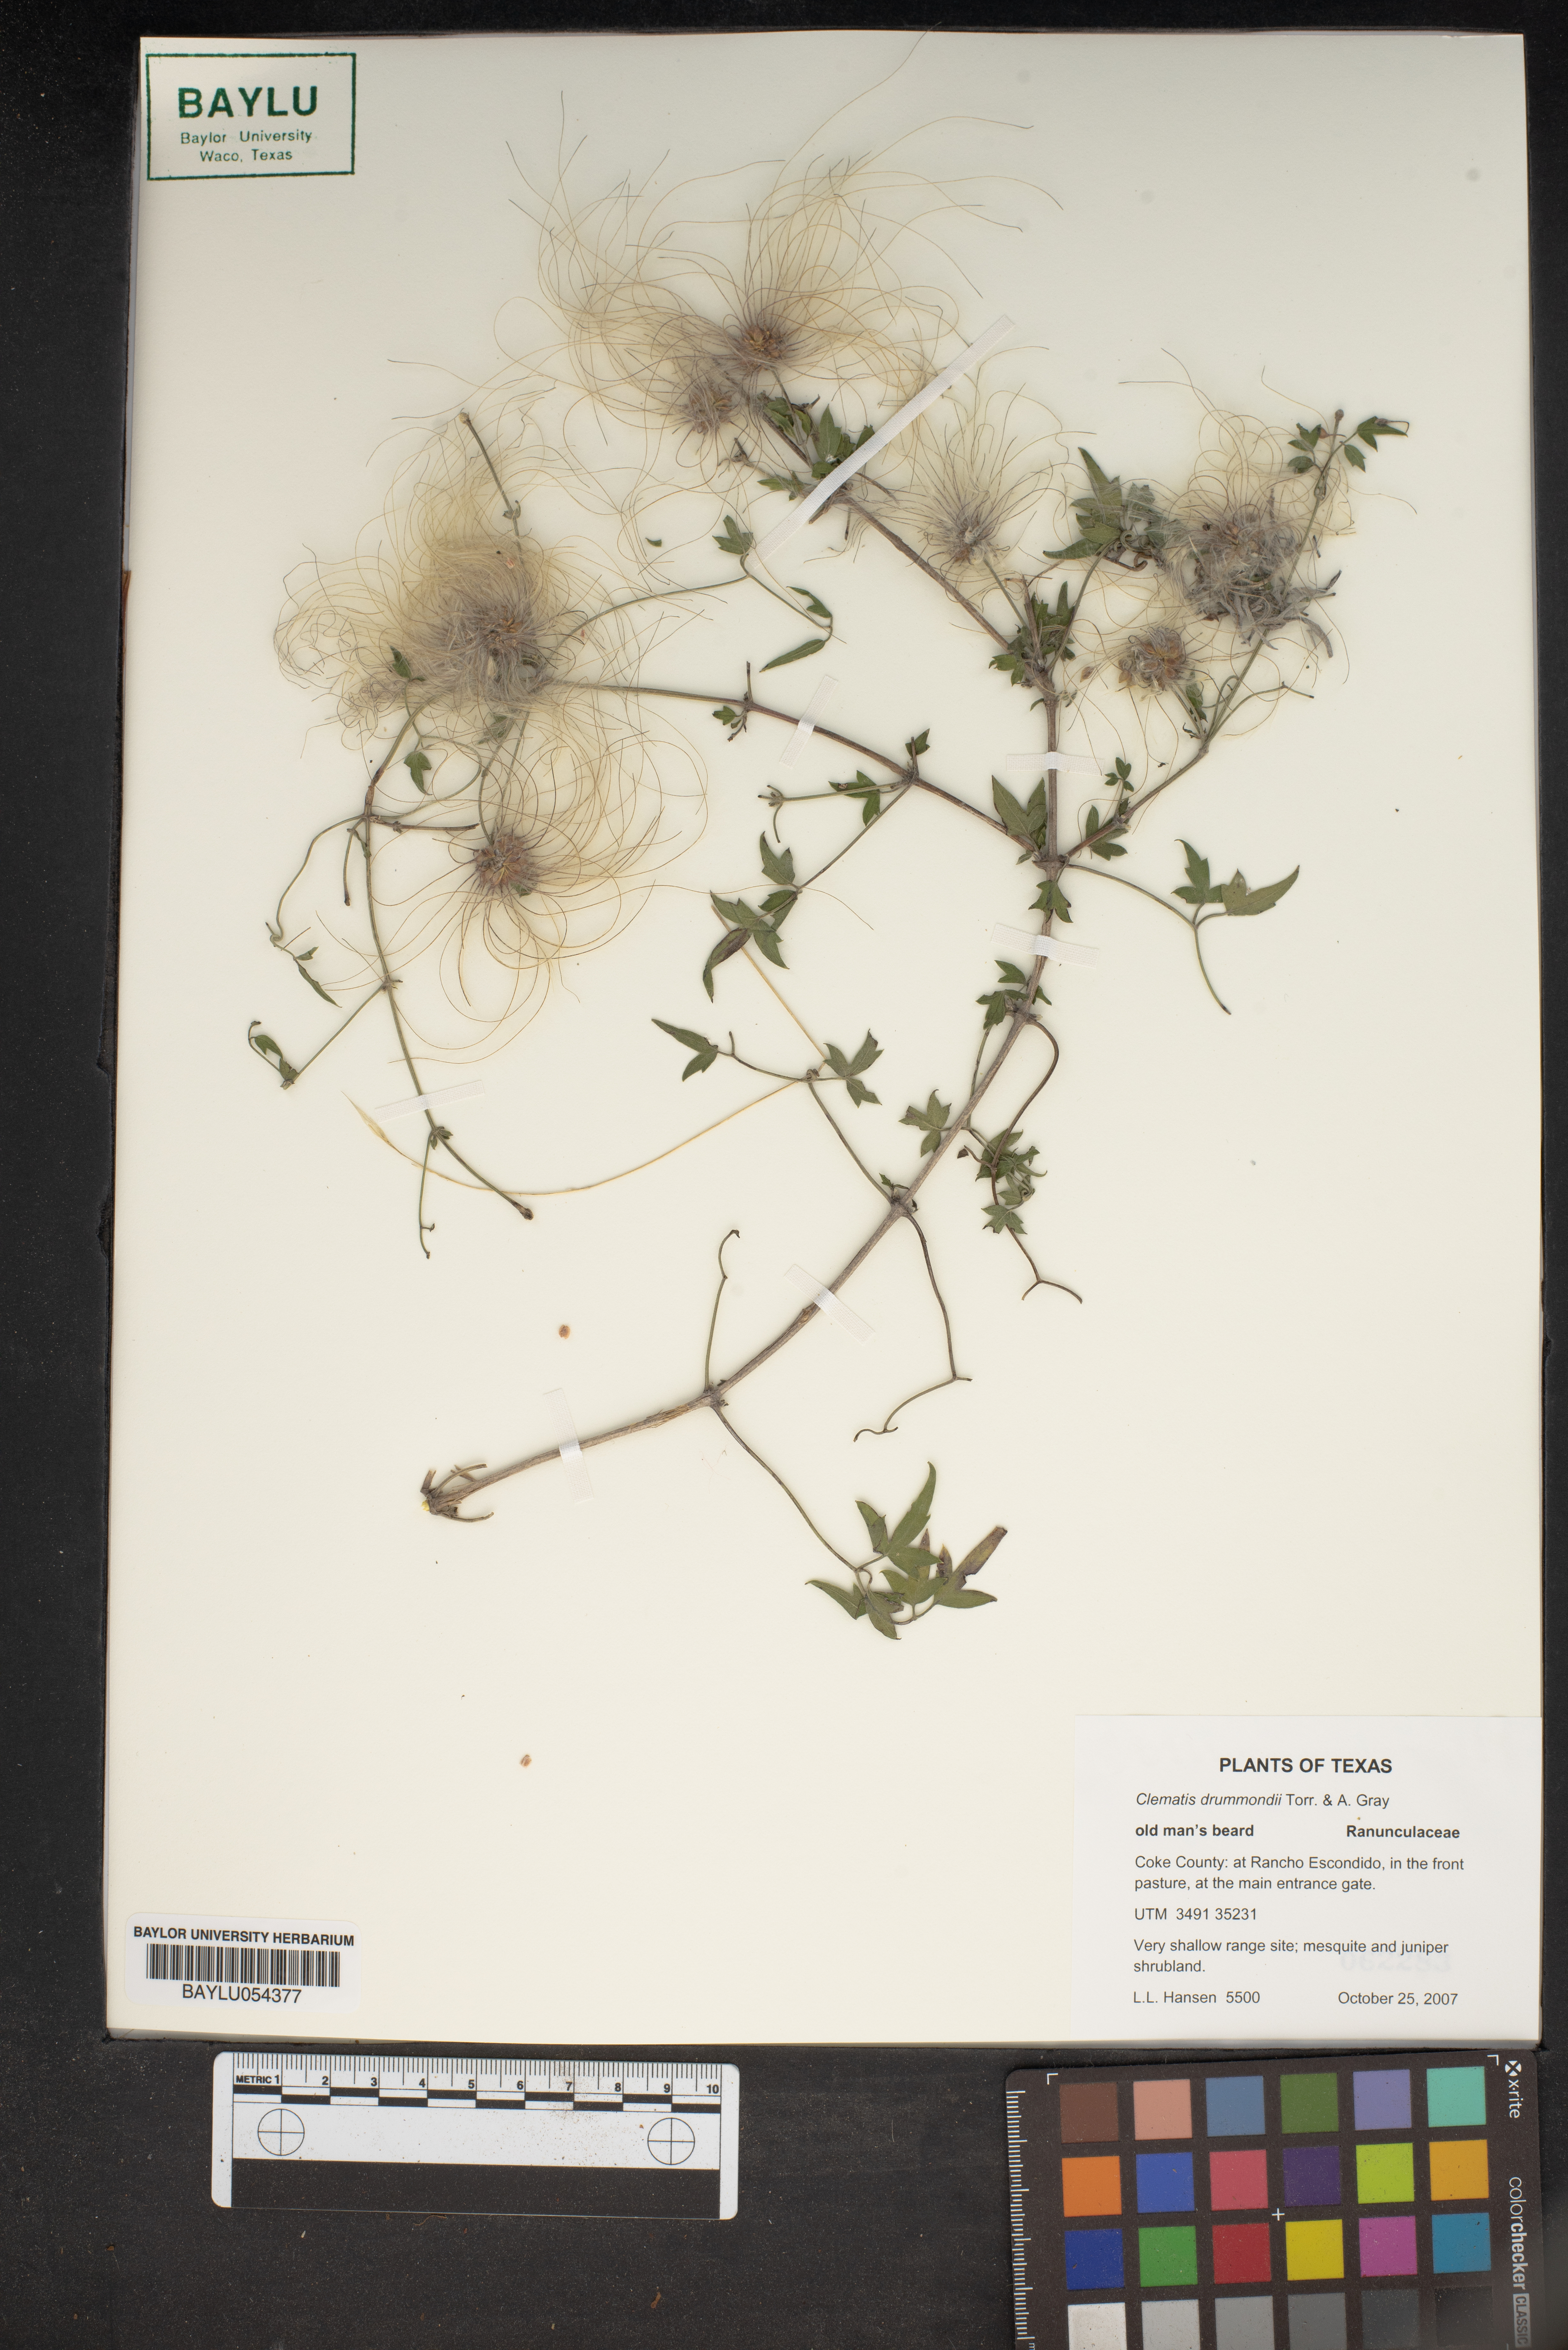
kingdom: Plantae
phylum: Tracheophyta
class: Magnoliopsida
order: Ranunculales
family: Ranunculaceae
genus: Clematis
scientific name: Clematis drummondii
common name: Texas virgin's bower
